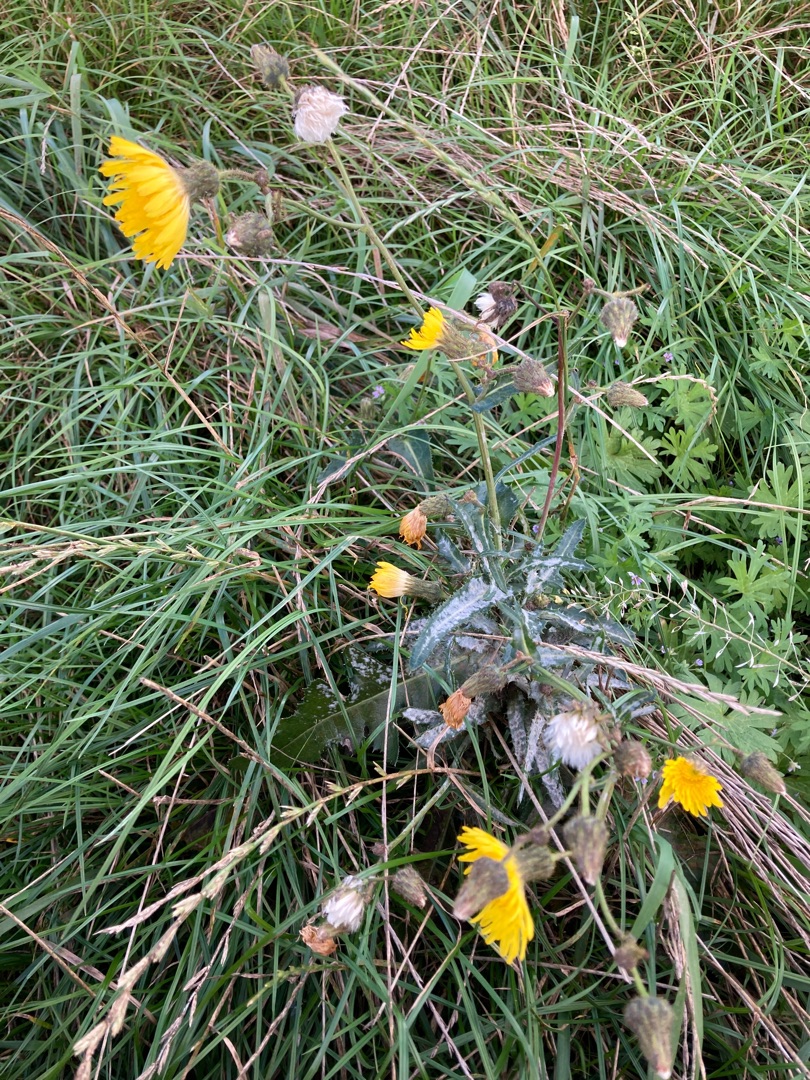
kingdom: Plantae
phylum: Tracheophyta
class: Magnoliopsida
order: Asterales
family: Asteraceae
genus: Sonchus
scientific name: Sonchus arvensis
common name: Ager-svinemælk
